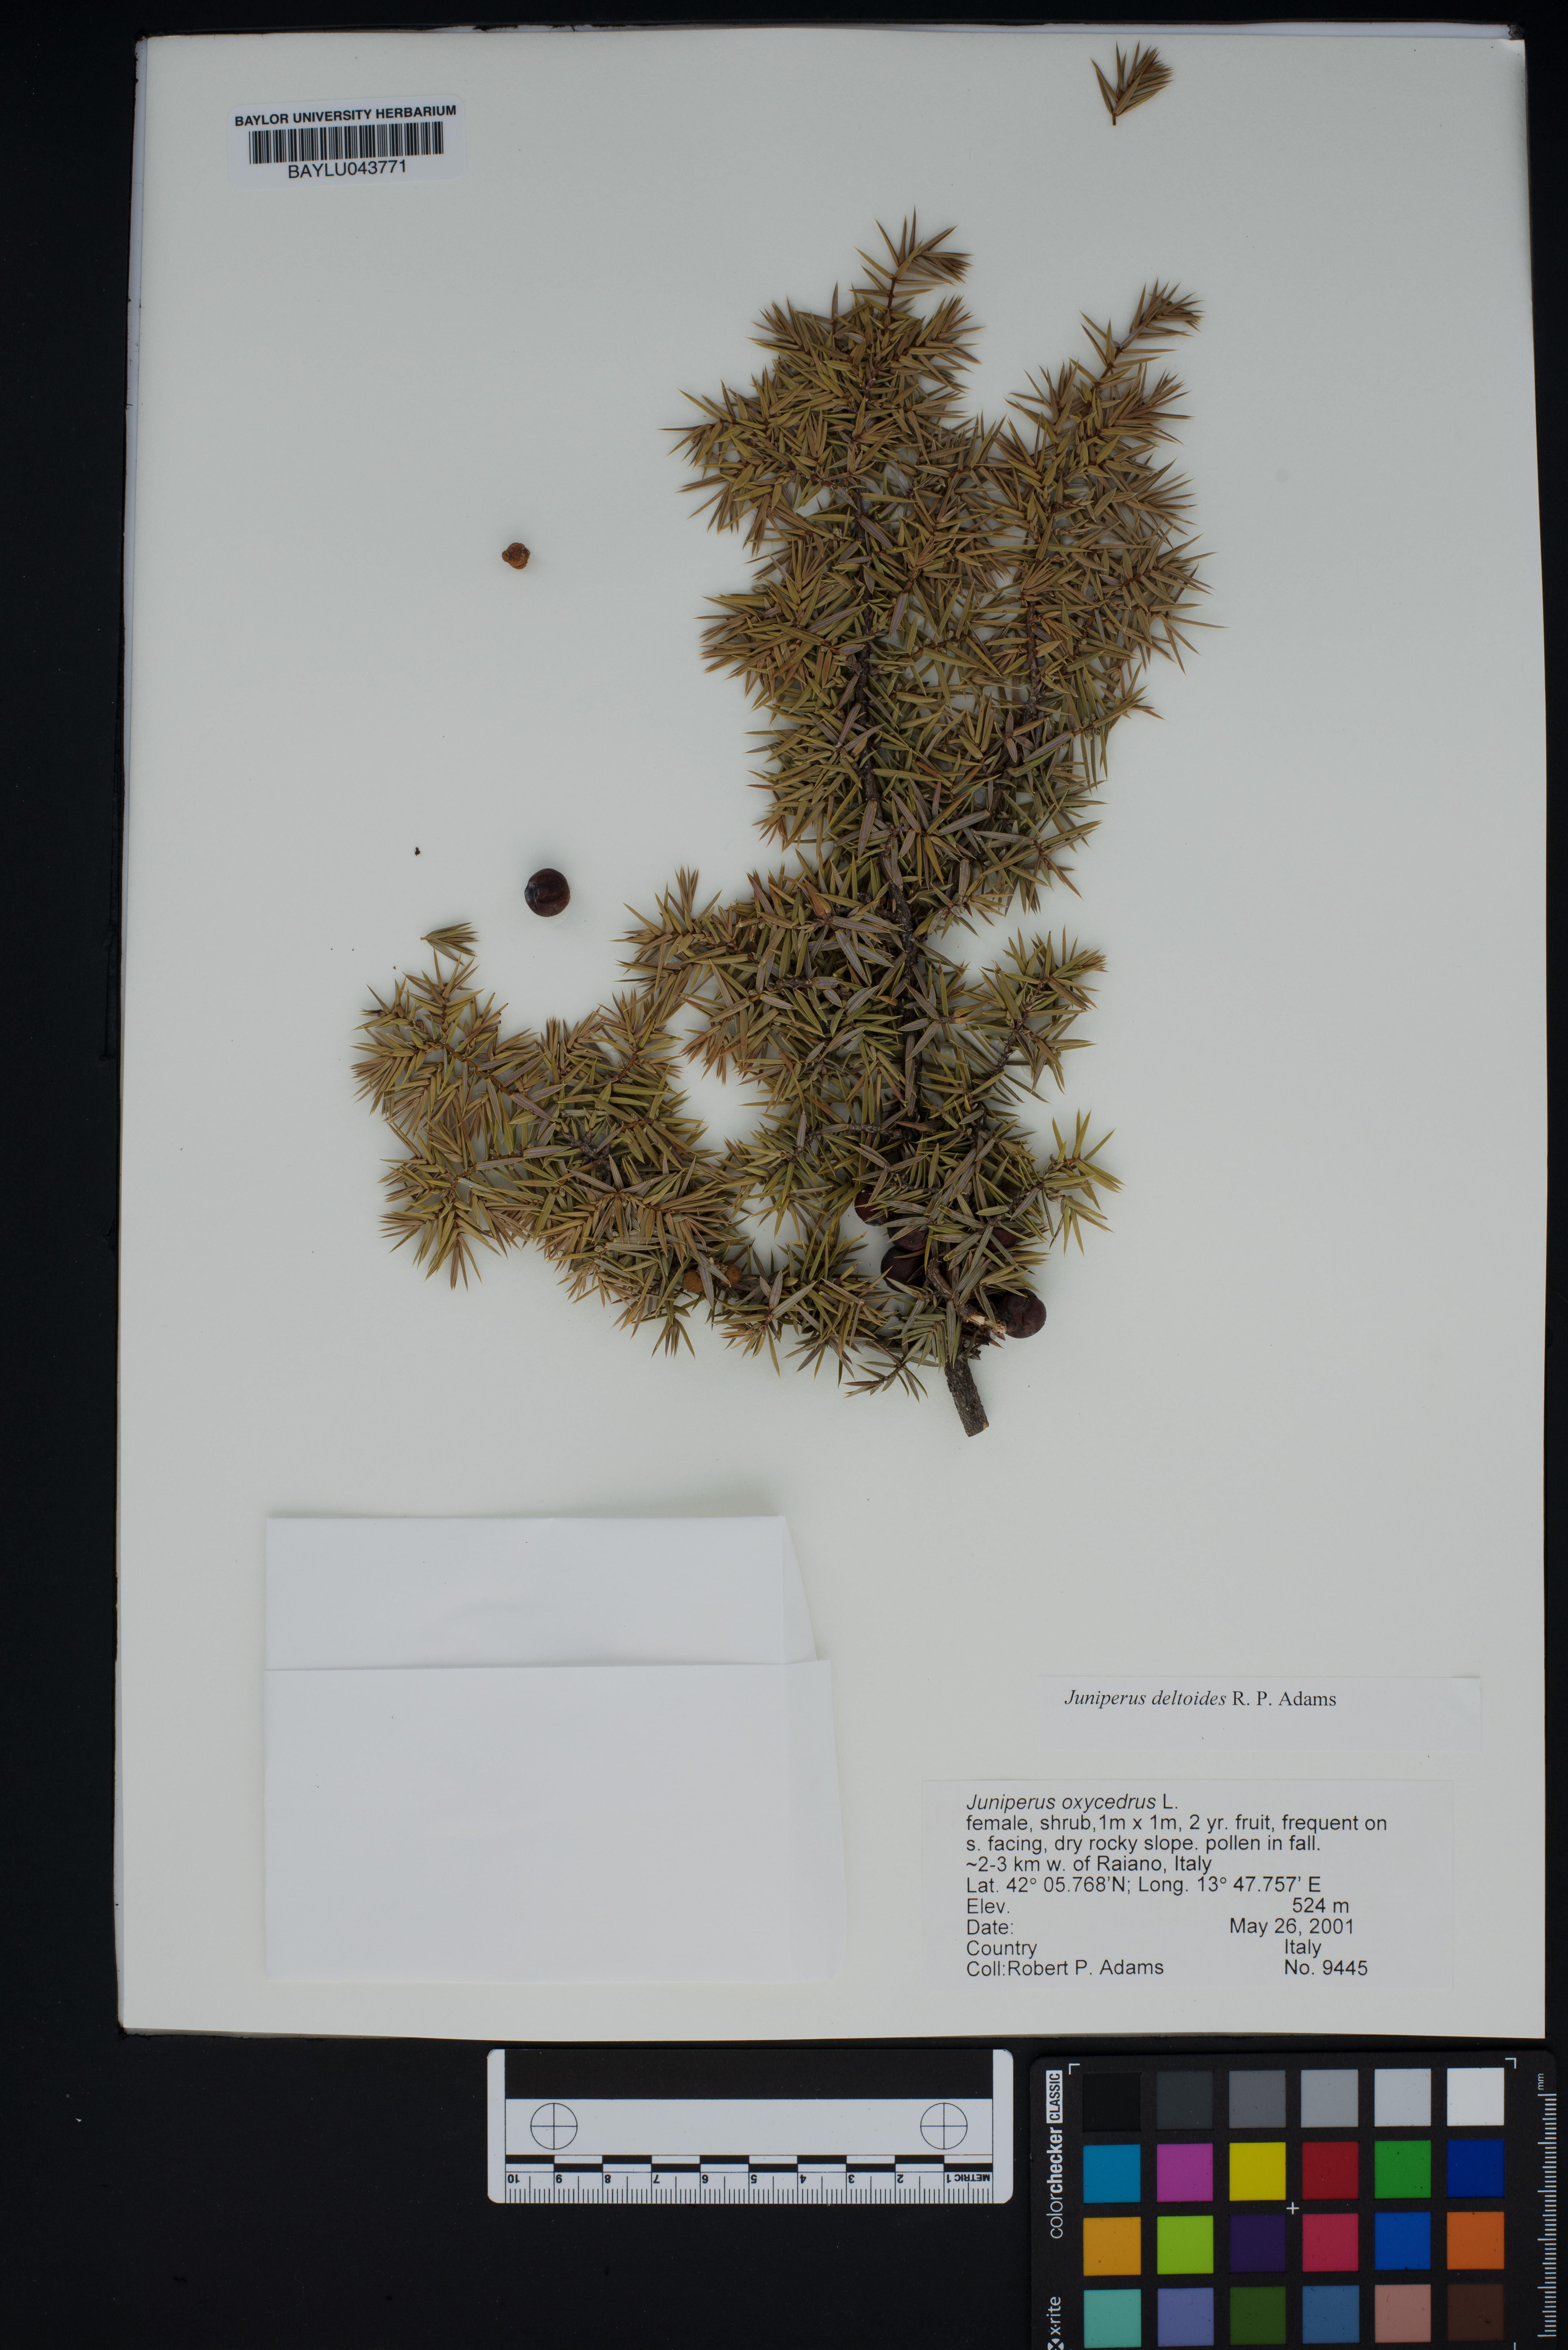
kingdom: Plantae
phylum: Tracheophyta
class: Pinopsida
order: Pinales
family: Cupressaceae
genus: Juniperus
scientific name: Juniperus oxycedrus
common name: Prickly juniper
